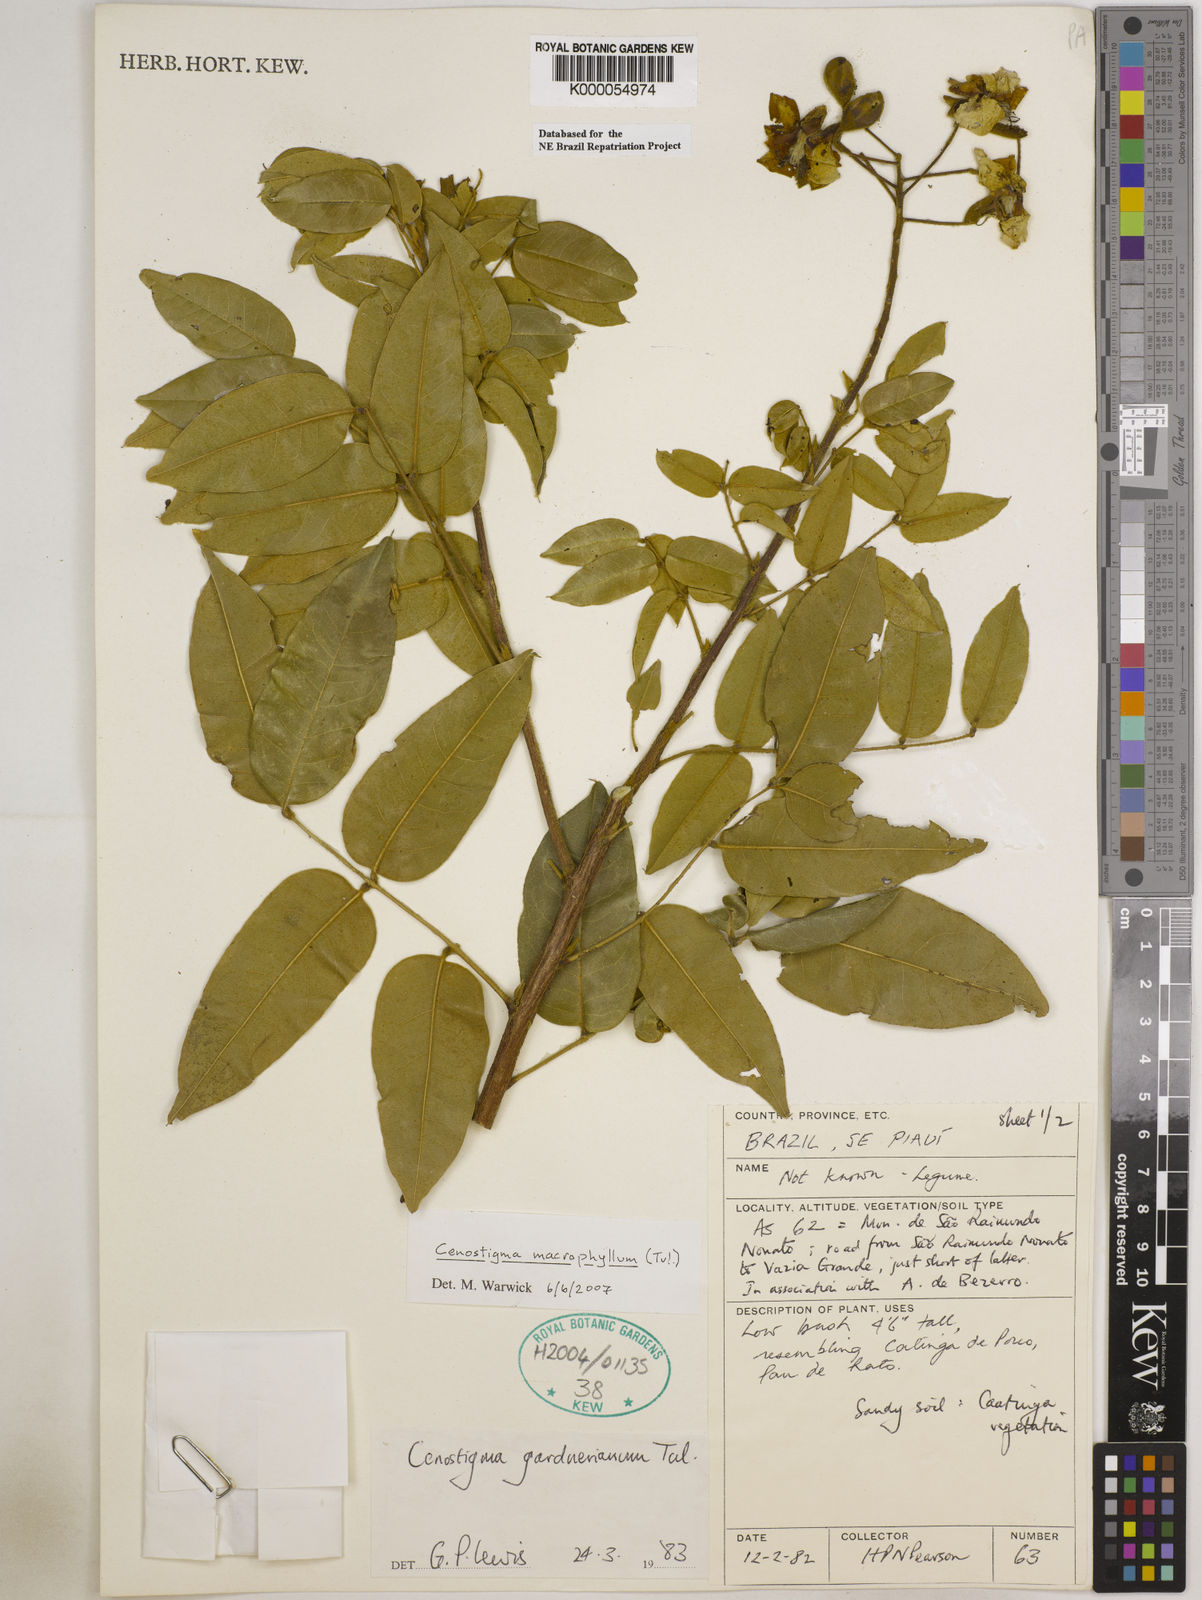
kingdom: Plantae
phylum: Tracheophyta
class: Magnoliopsida
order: Fabales
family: Fabaceae
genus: Cenostigma
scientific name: Cenostigma macrophyllum
